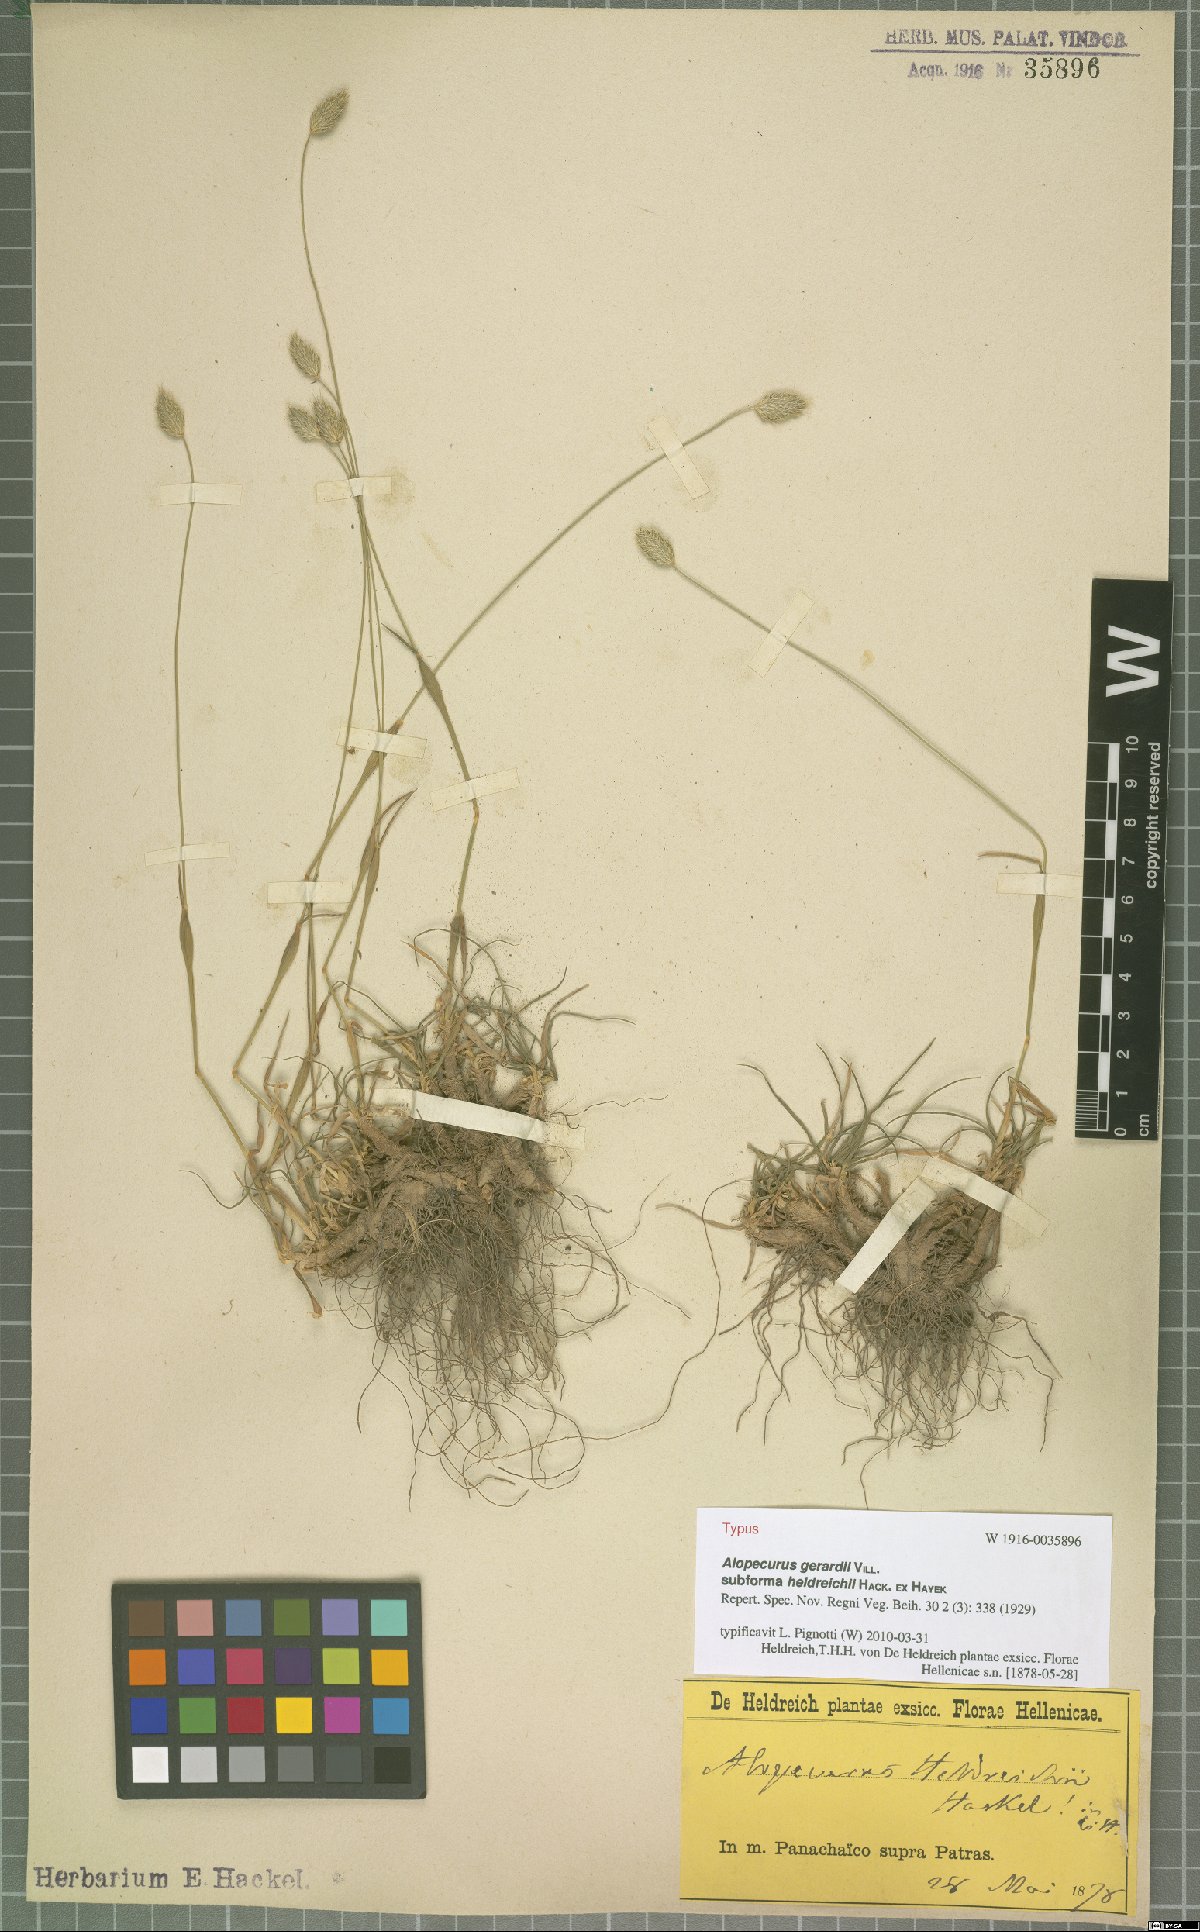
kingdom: Plantae
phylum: Tracheophyta
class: Liliopsida
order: Poales
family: Poaceae
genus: Festuca
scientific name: Festuca jeanpertii
